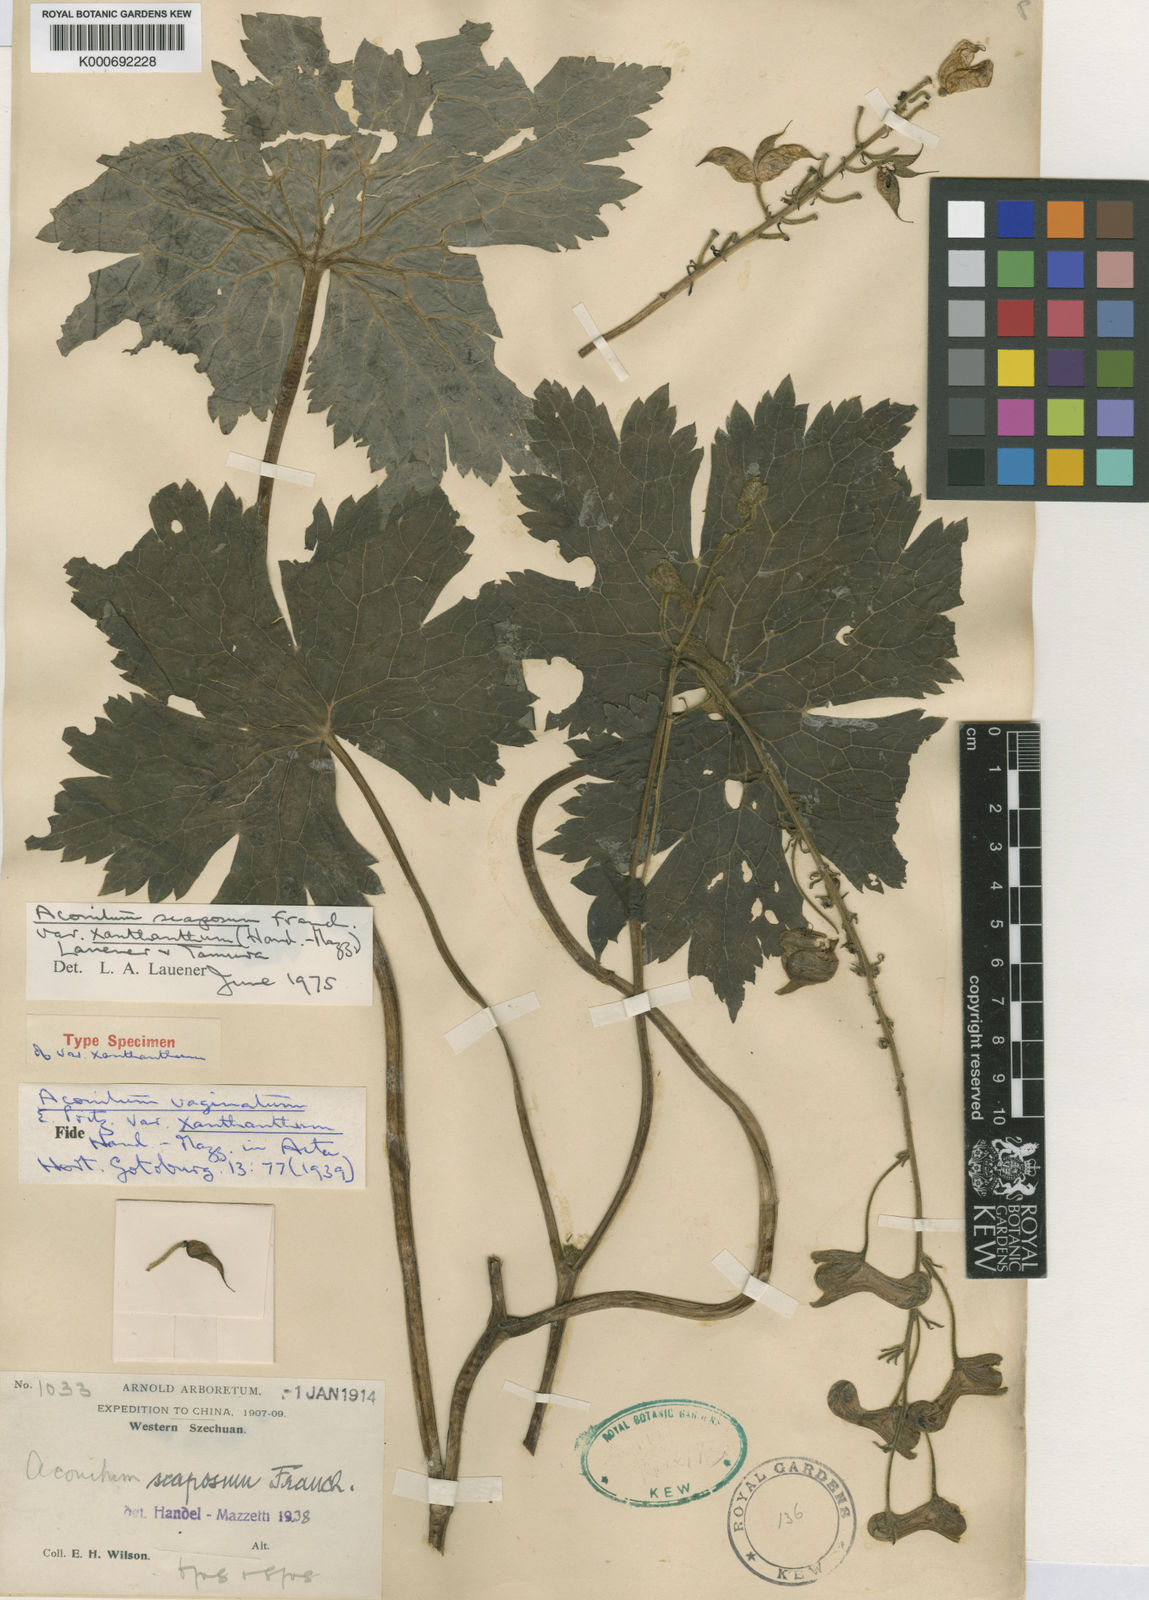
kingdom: Plantae
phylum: Tracheophyta
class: Magnoliopsida
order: Ranunculales
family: Ranunculaceae
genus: Aconitum
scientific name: Aconitum scaposum
